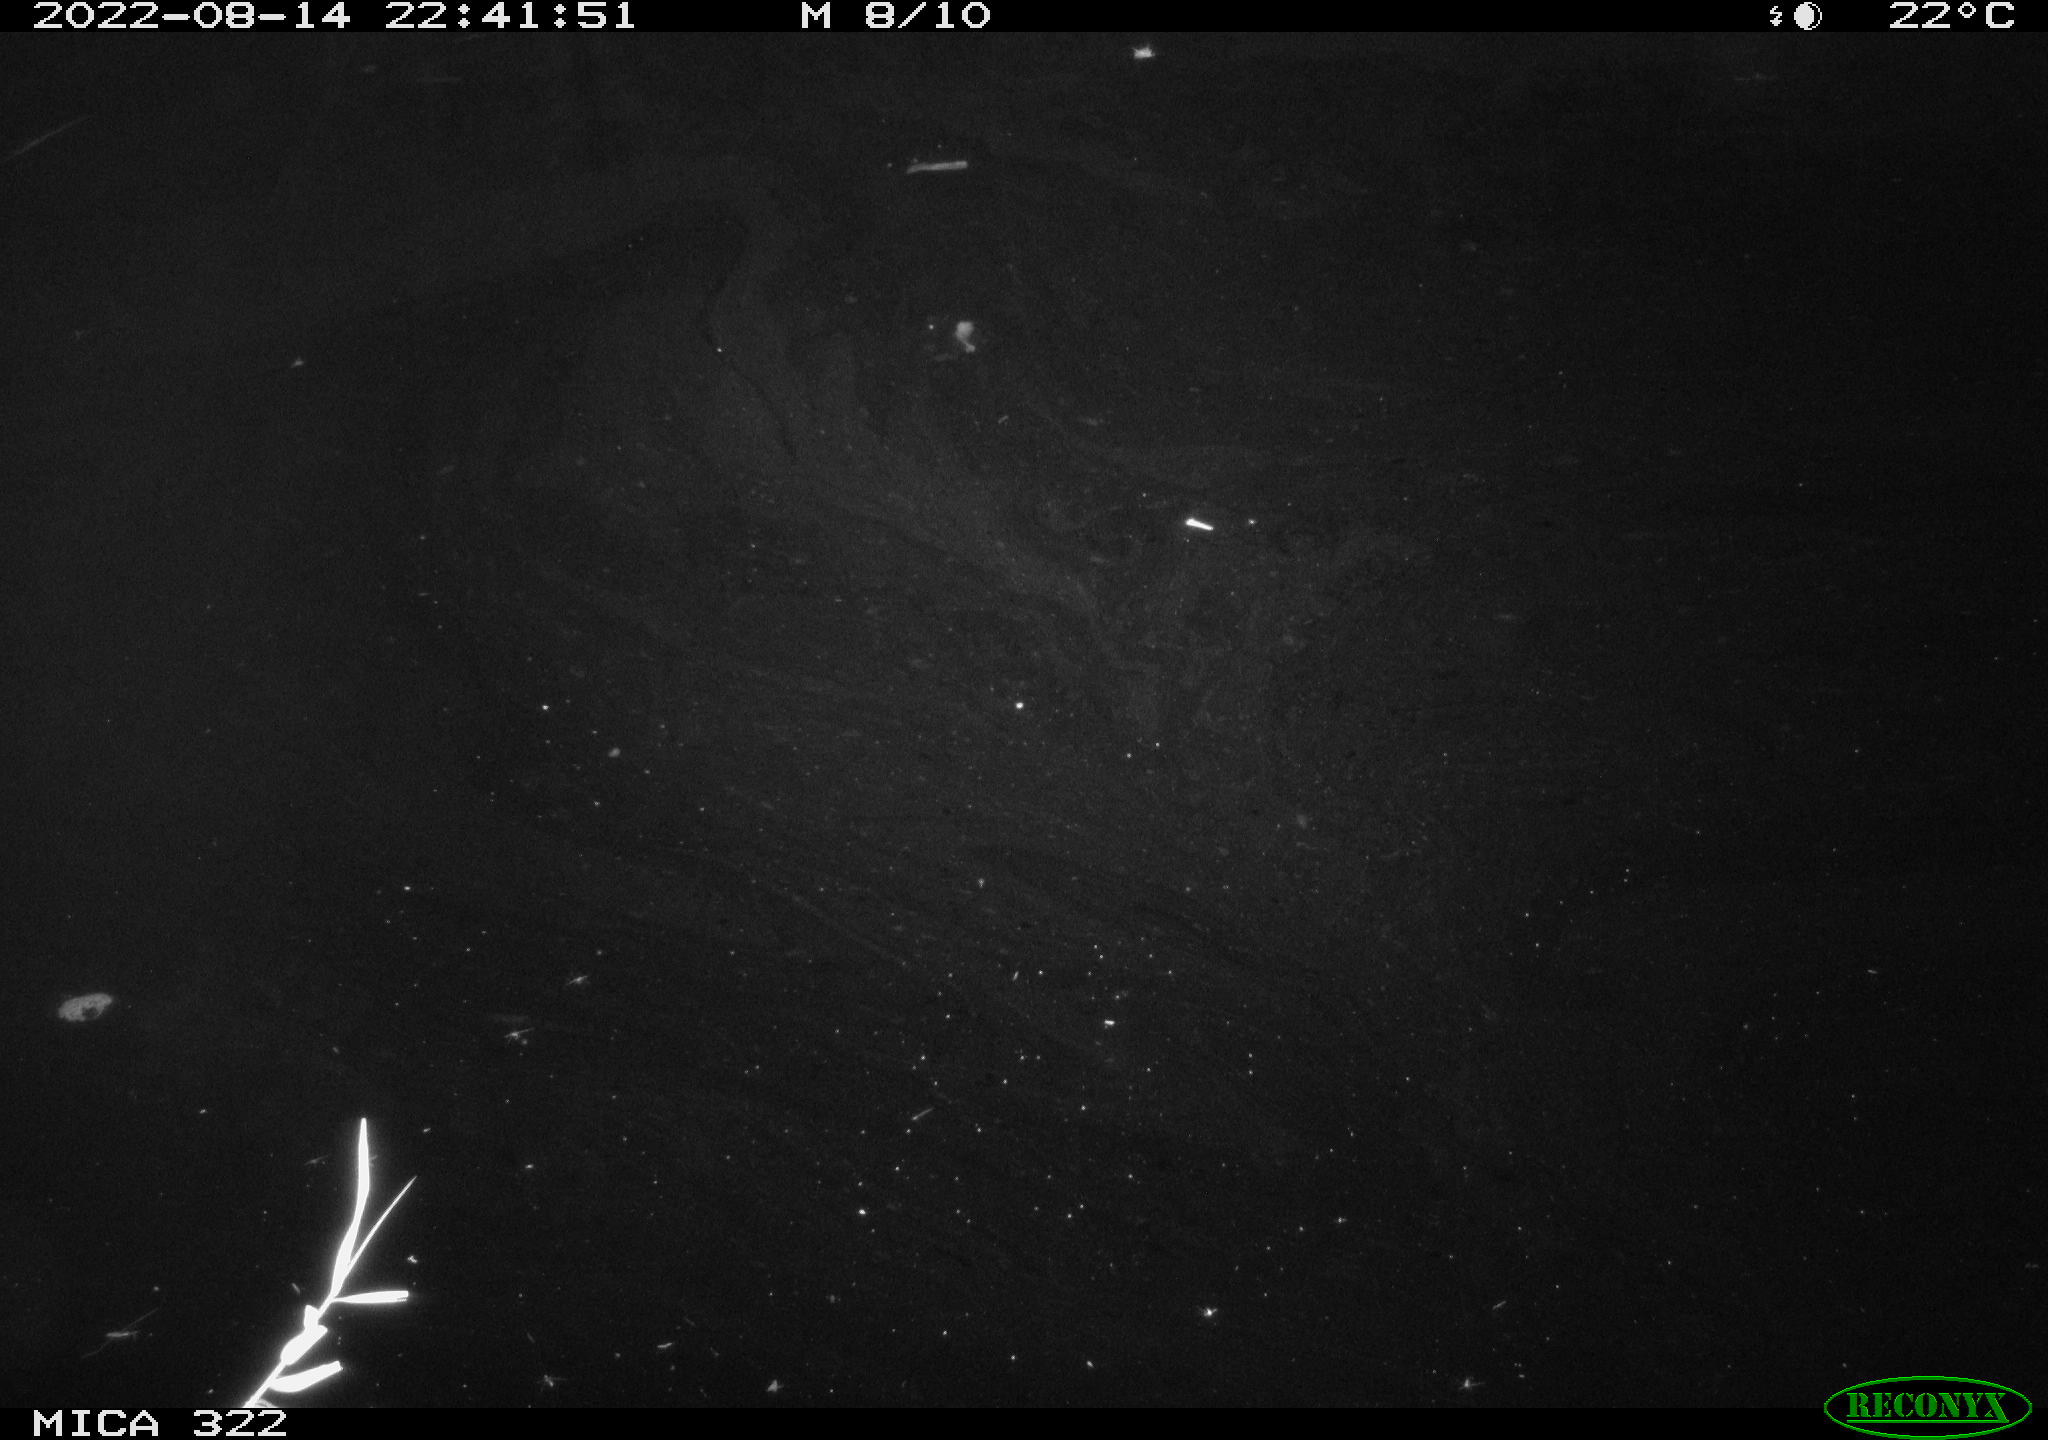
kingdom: Animalia
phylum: Chordata
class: Aves
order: Anseriformes
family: Anatidae
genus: Anas
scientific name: Anas platyrhynchos
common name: Mallard
